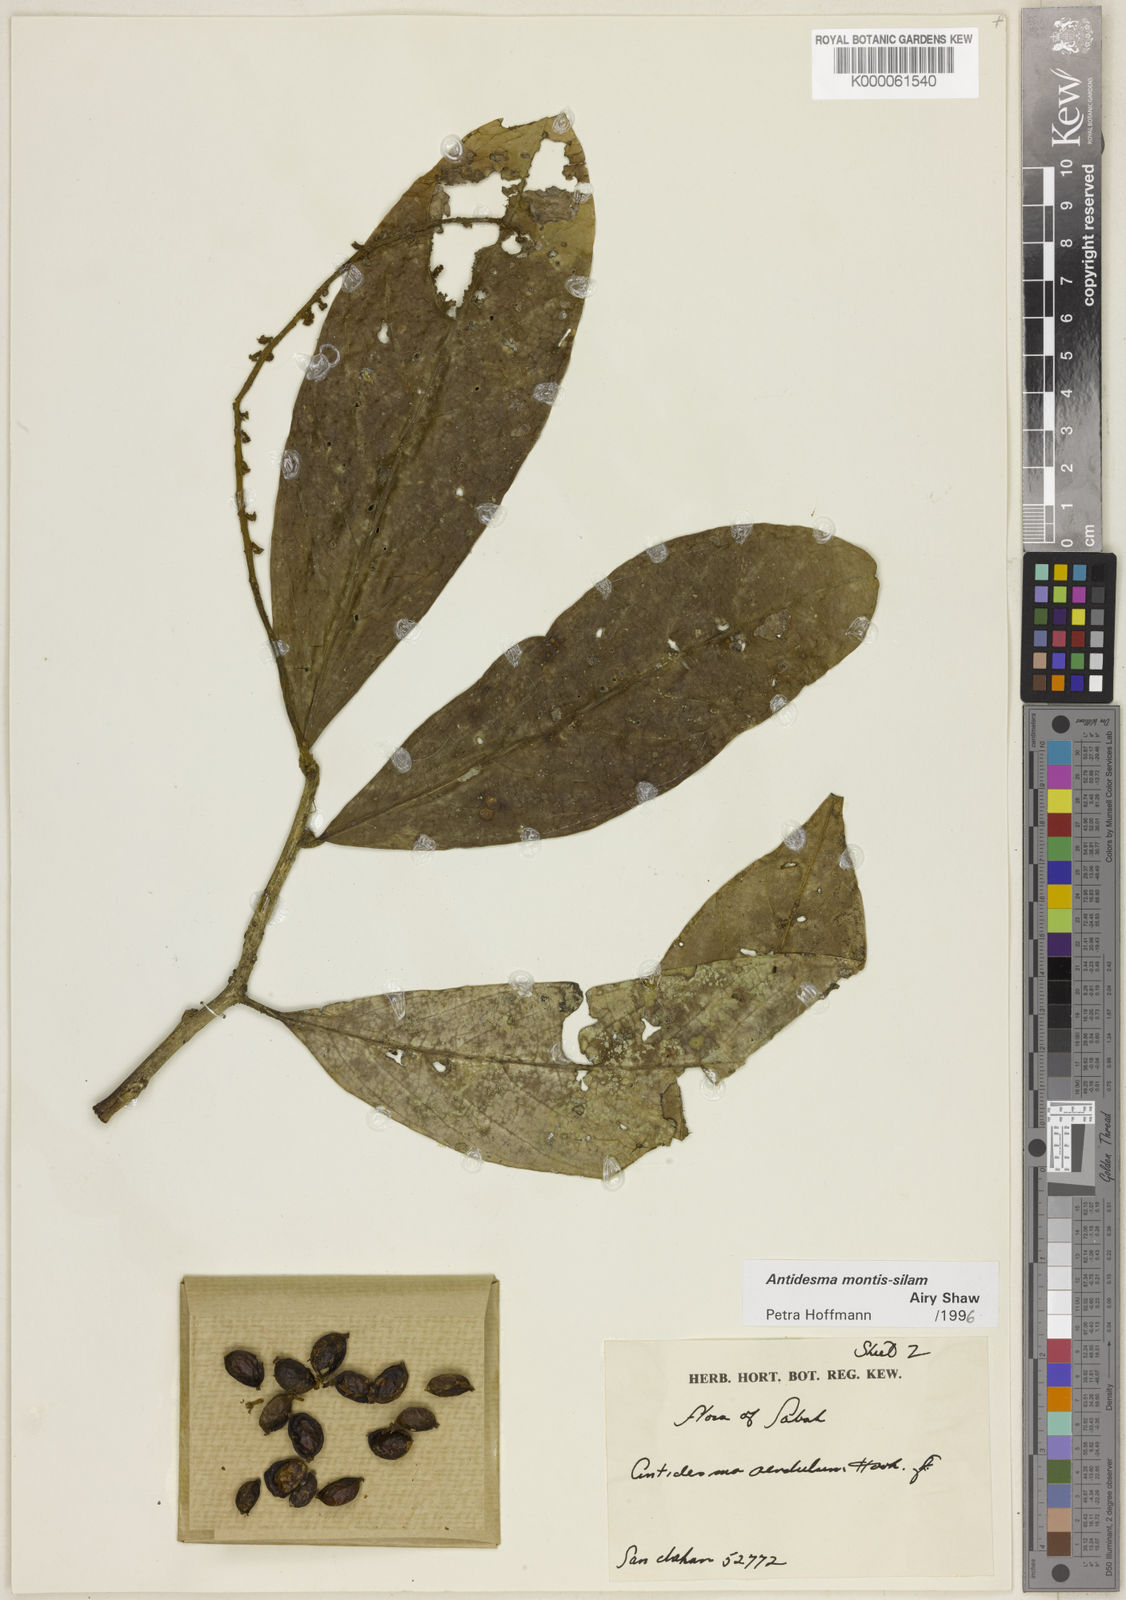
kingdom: Plantae
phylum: Tracheophyta
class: Magnoliopsida
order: Malpighiales
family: Phyllanthaceae
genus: Antidesma
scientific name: Antidesma montis-silam
